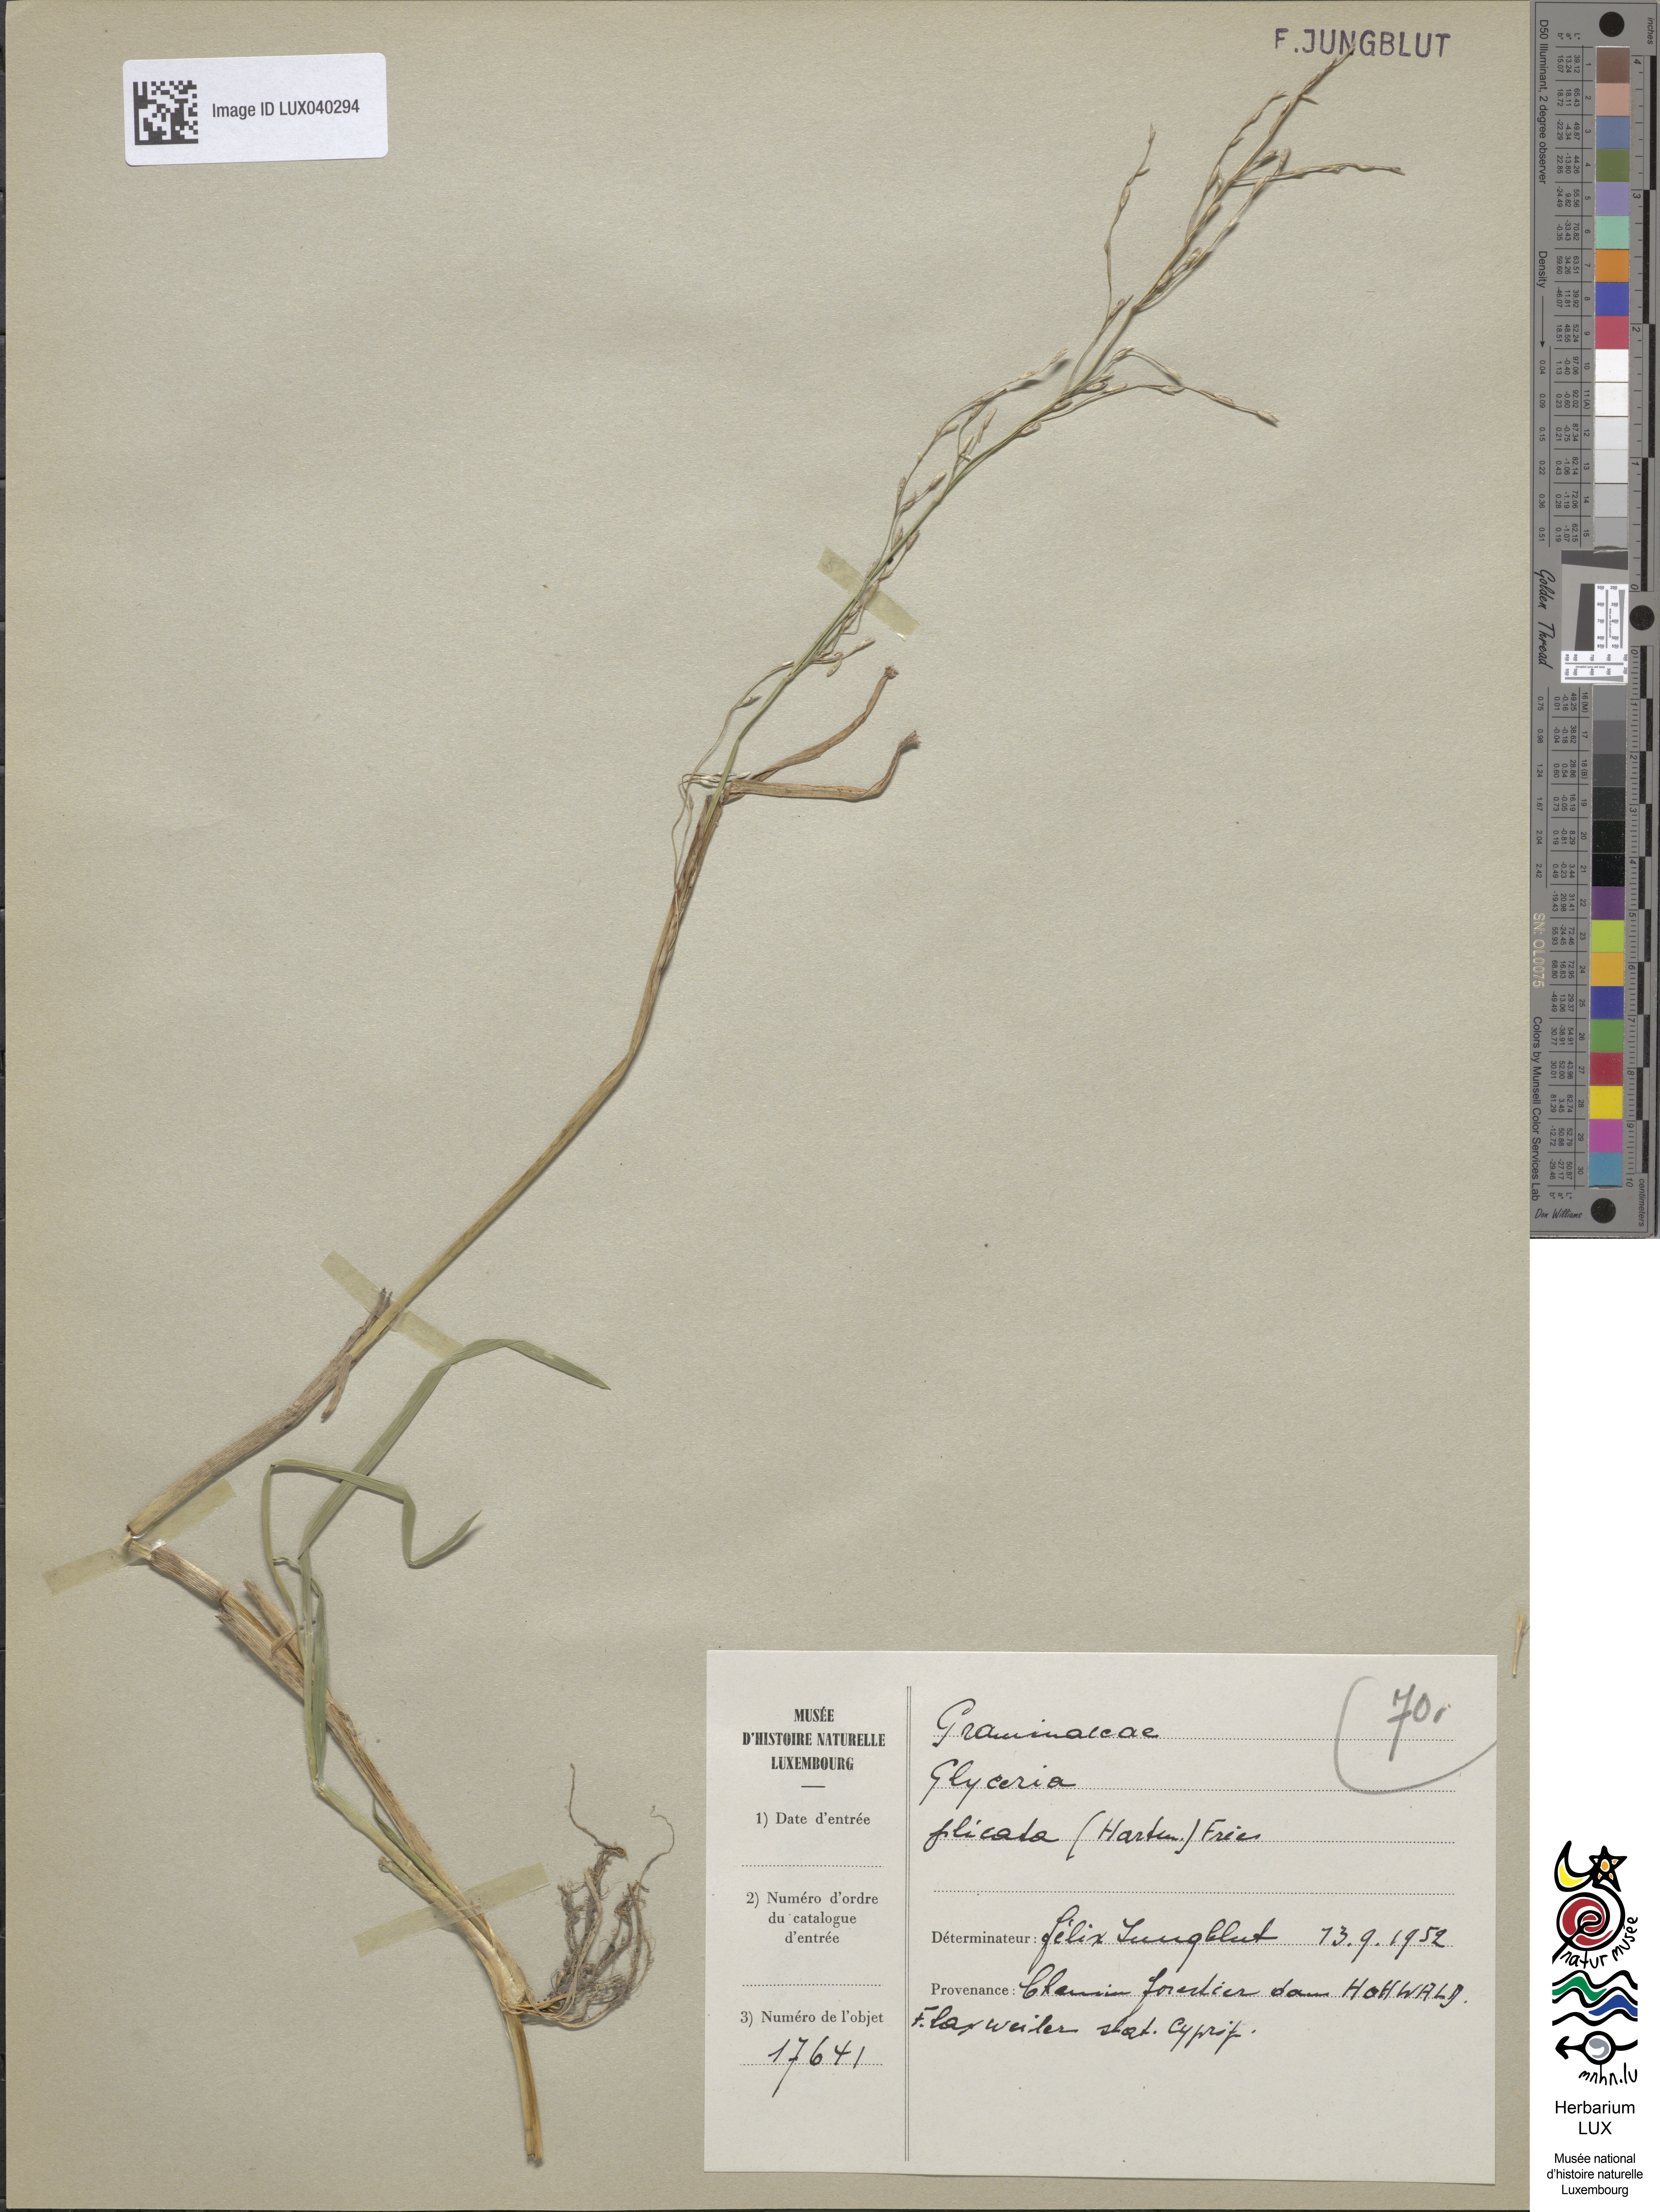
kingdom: Plantae
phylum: Tracheophyta
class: Liliopsida
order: Poales
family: Poaceae
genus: Glyceria
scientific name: Glyceria notata
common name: Plicate sweet-grass
